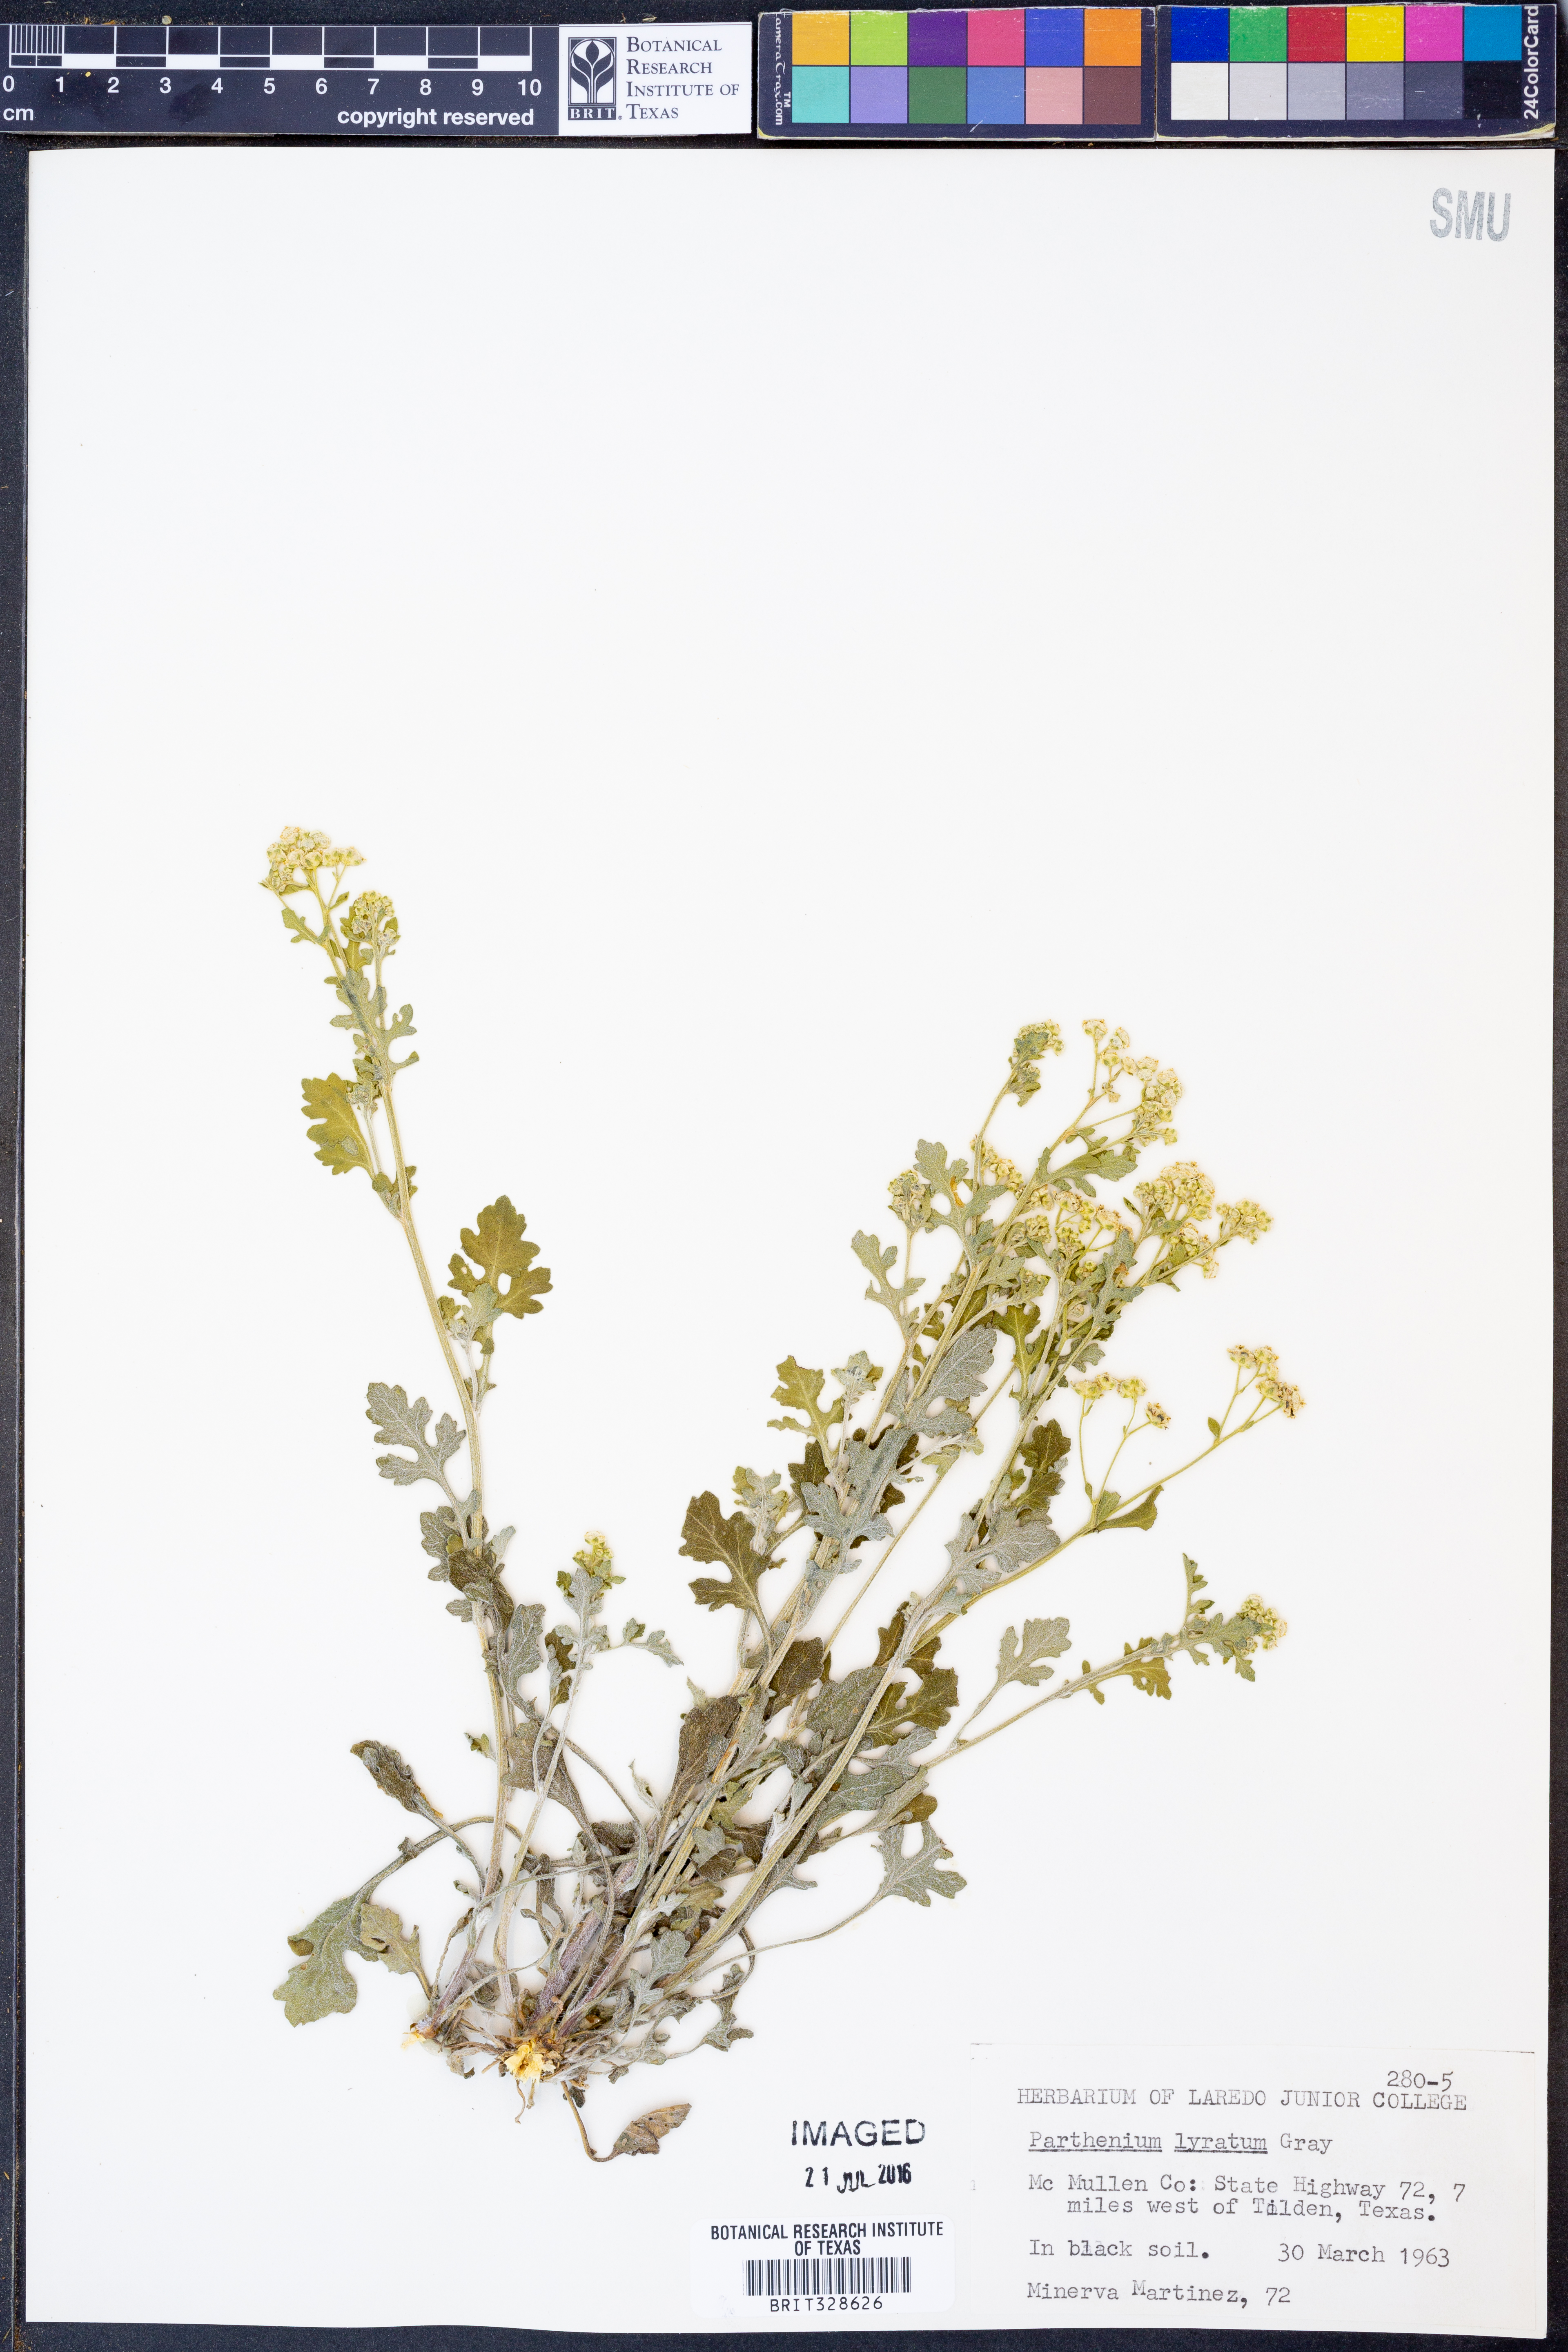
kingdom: Plantae
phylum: Tracheophyta
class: Magnoliopsida
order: Asterales
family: Asteraceae
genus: Parthenium
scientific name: Parthenium confertum
